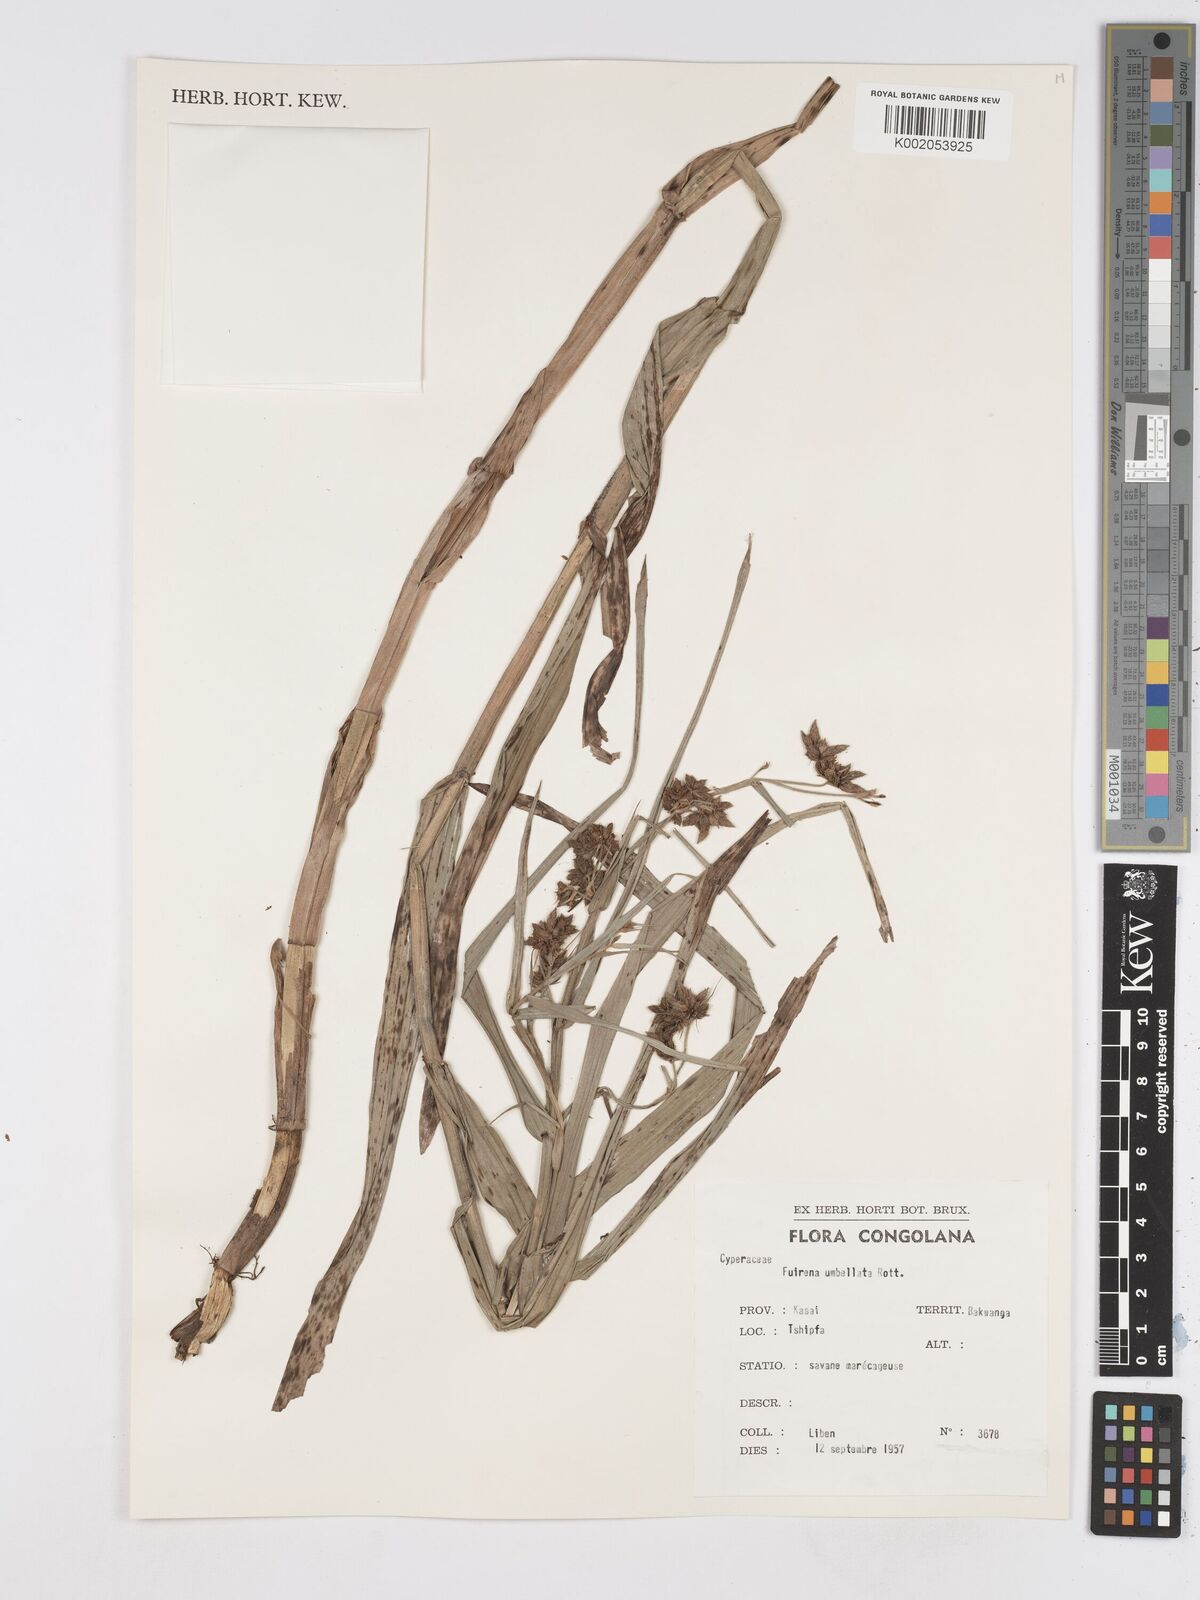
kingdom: Plantae
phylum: Tracheophyta
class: Liliopsida
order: Poales
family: Cyperaceae
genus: Fuirena
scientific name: Fuirena umbellata
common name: Yefen
